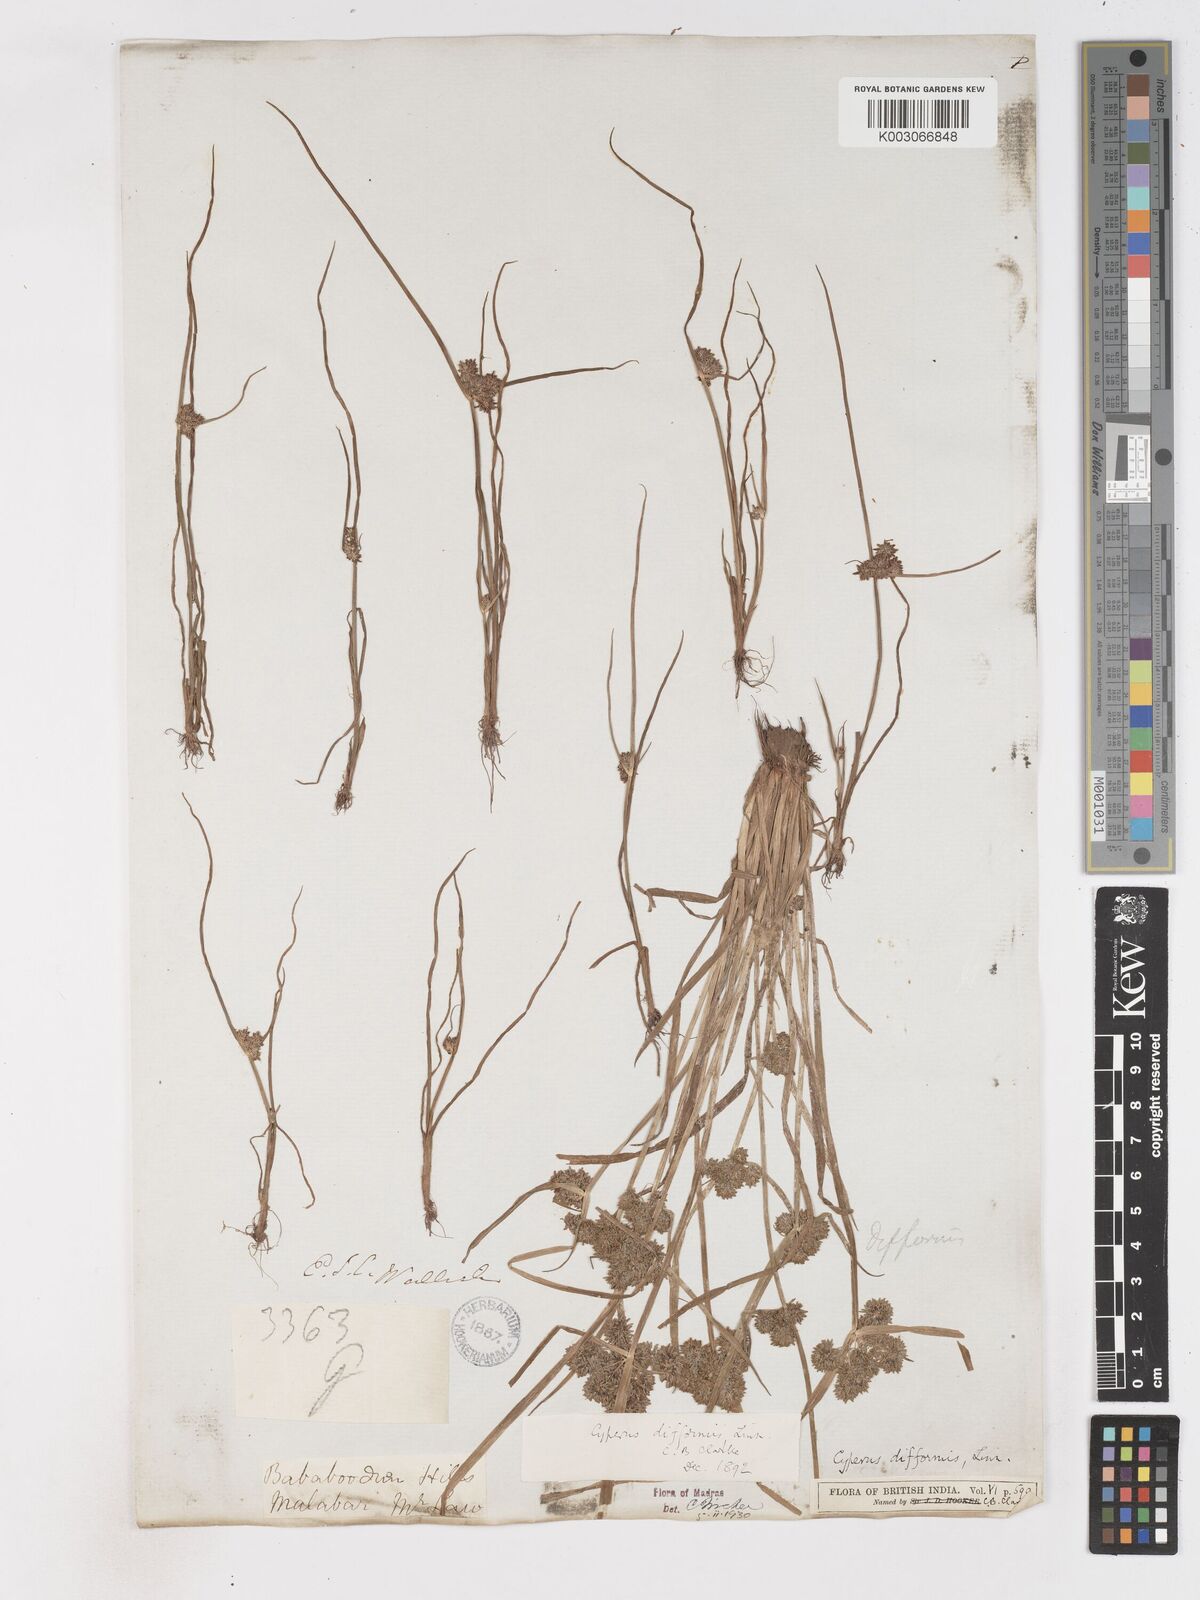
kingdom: Plantae
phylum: Tracheophyta
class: Liliopsida
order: Poales
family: Cyperaceae
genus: Cyperus
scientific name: Cyperus difformis
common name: Variable flatsedge
